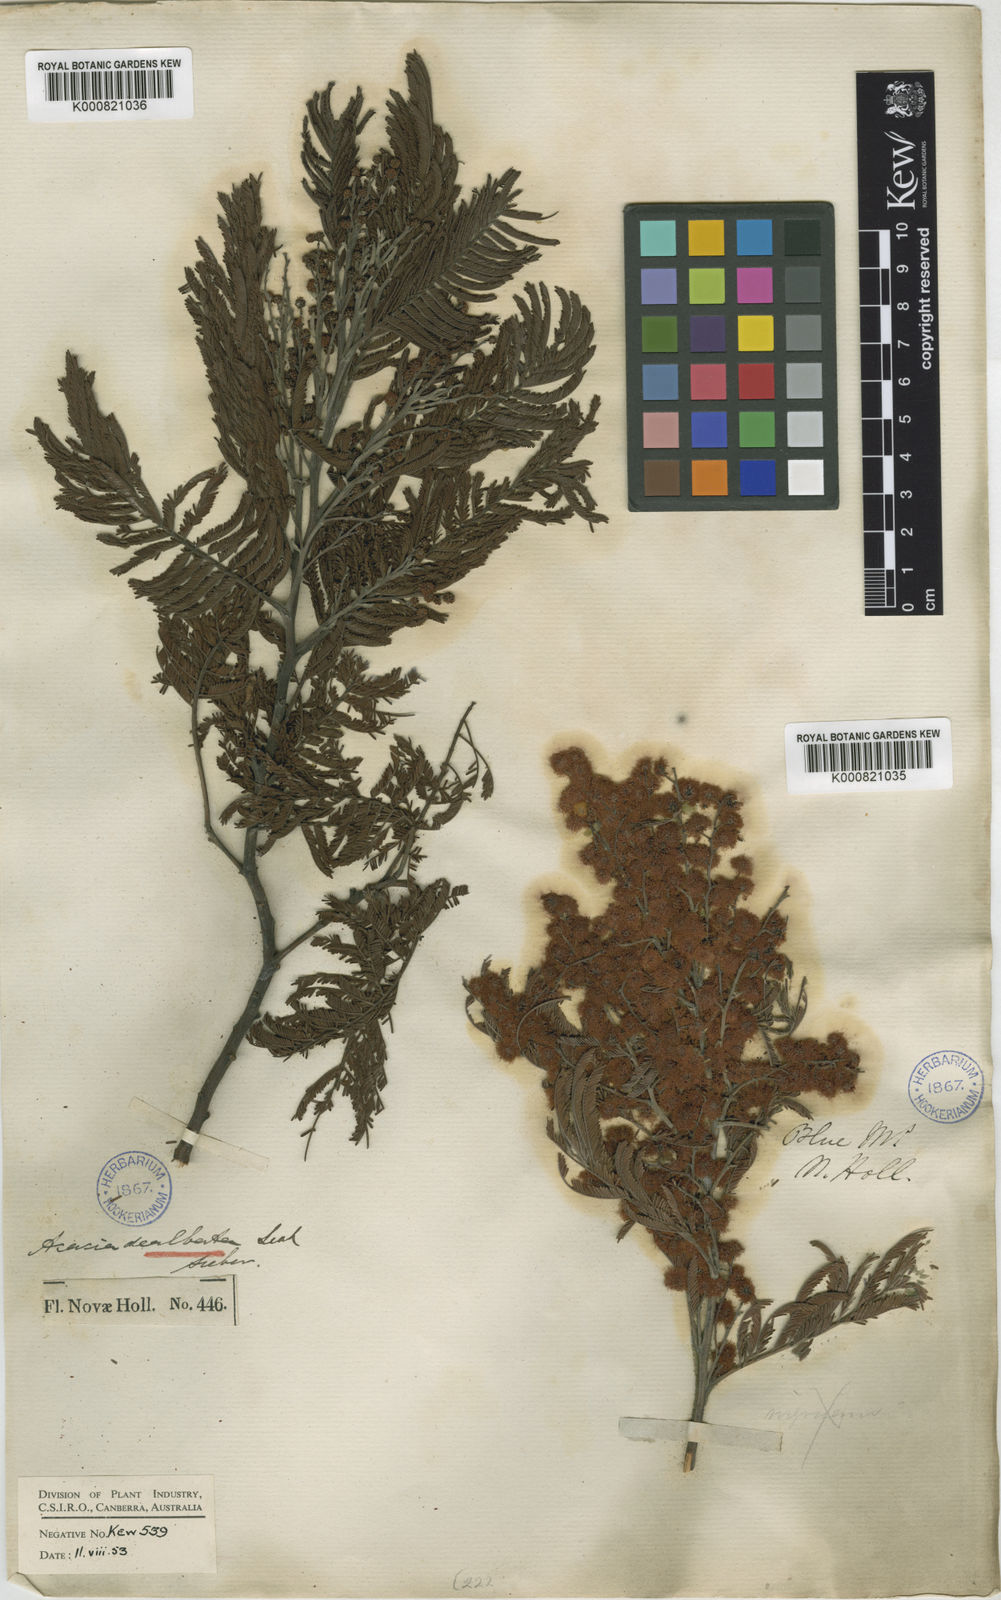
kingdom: Plantae
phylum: Tracheophyta
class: Magnoliopsida
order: Fabales
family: Fabaceae
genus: Acacia
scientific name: Acacia dealbata
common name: Silver wattle
